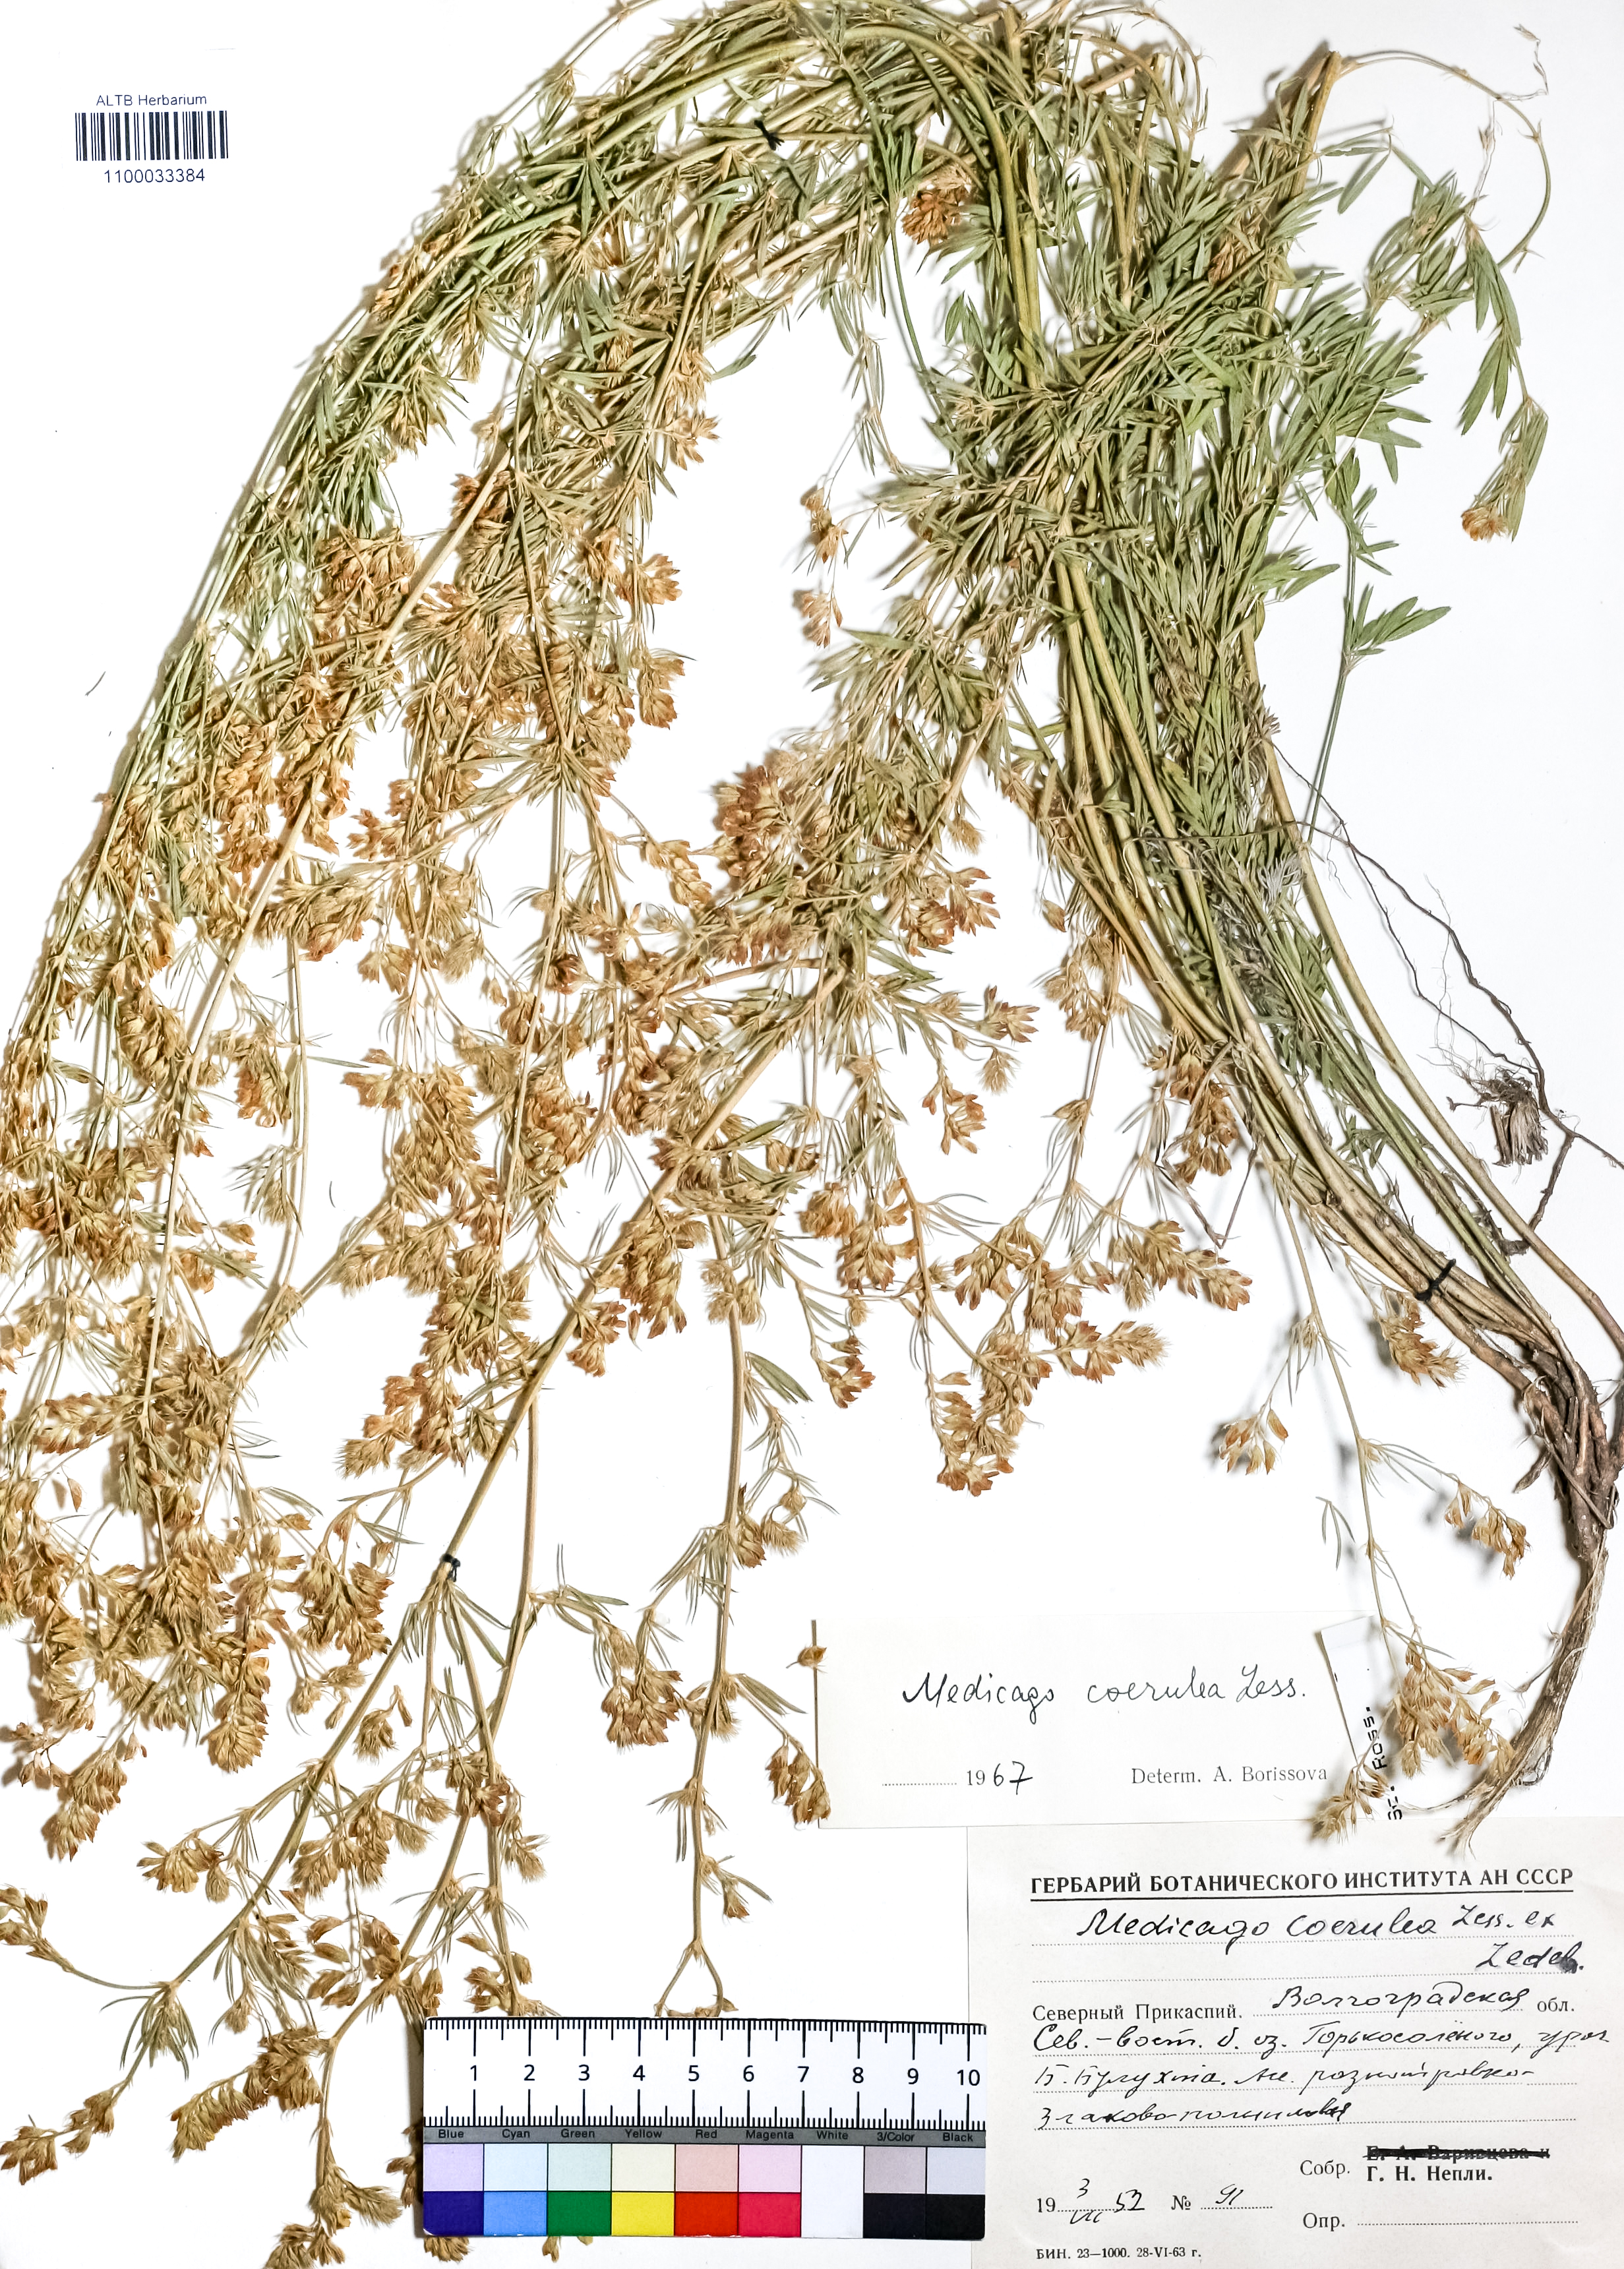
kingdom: Plantae
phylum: Tracheophyta
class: Magnoliopsida
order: Fabales
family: Fabaceae
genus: Medicago
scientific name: Medicago lessingii
